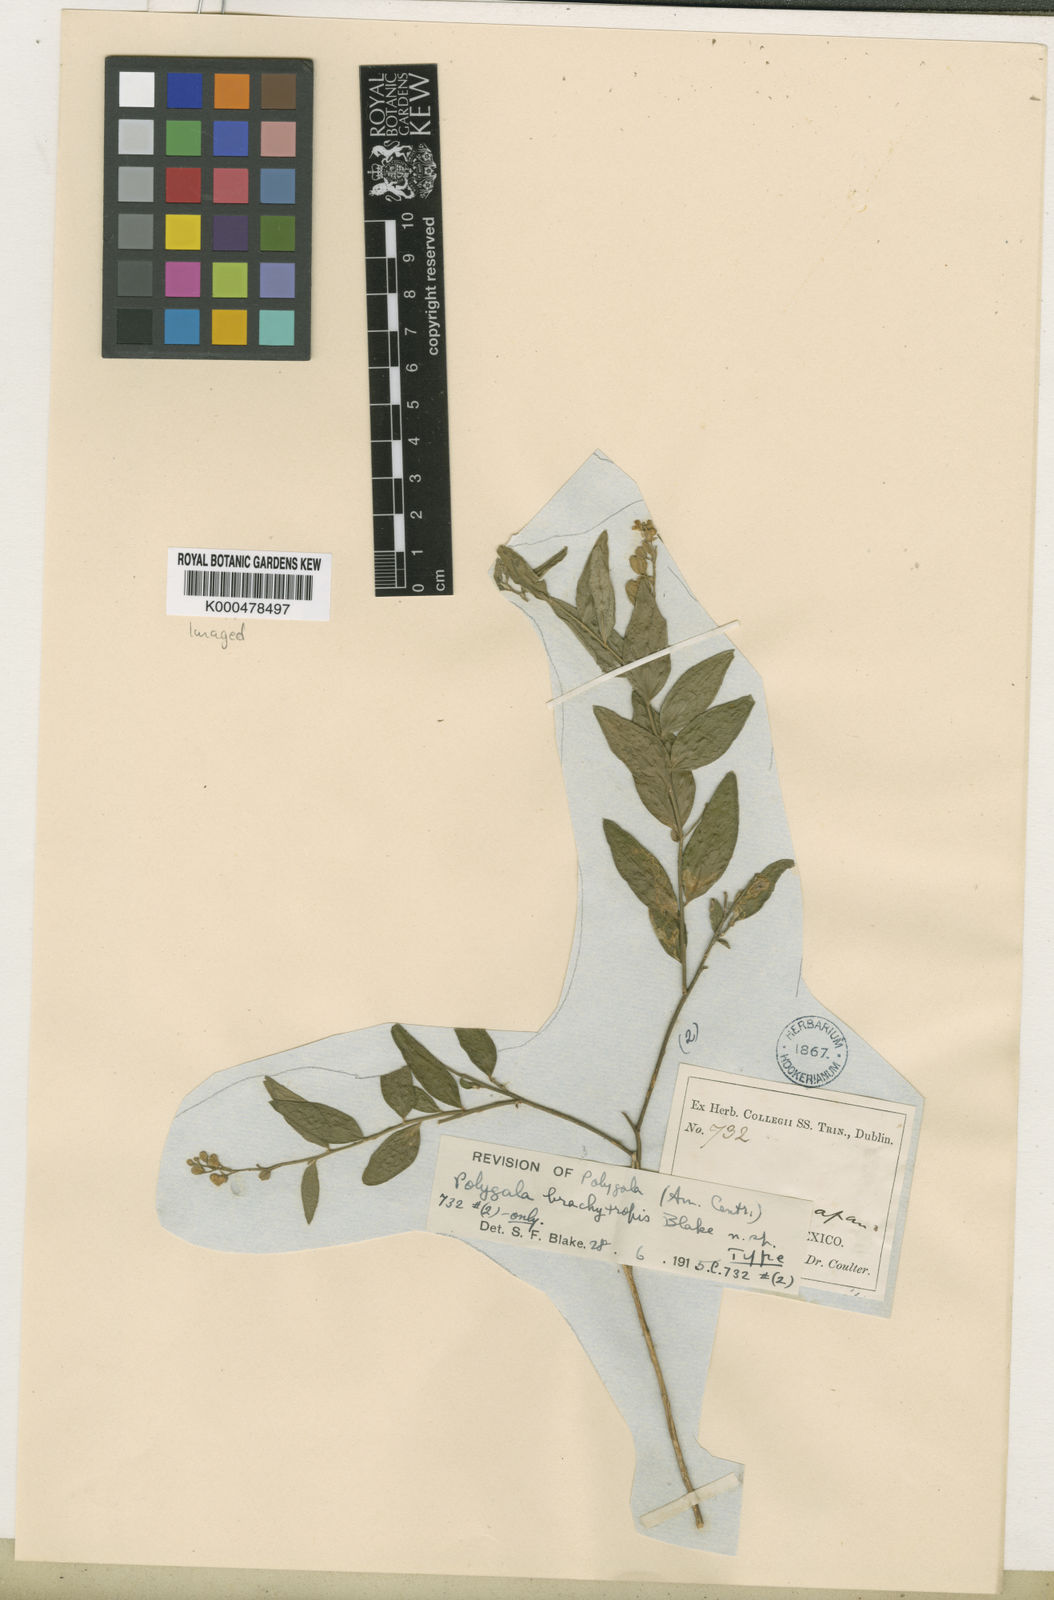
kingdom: Plantae
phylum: Tracheophyta
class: Magnoliopsida
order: Fabales
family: Polygalaceae
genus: Polygala
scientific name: Polygala brachytropis
